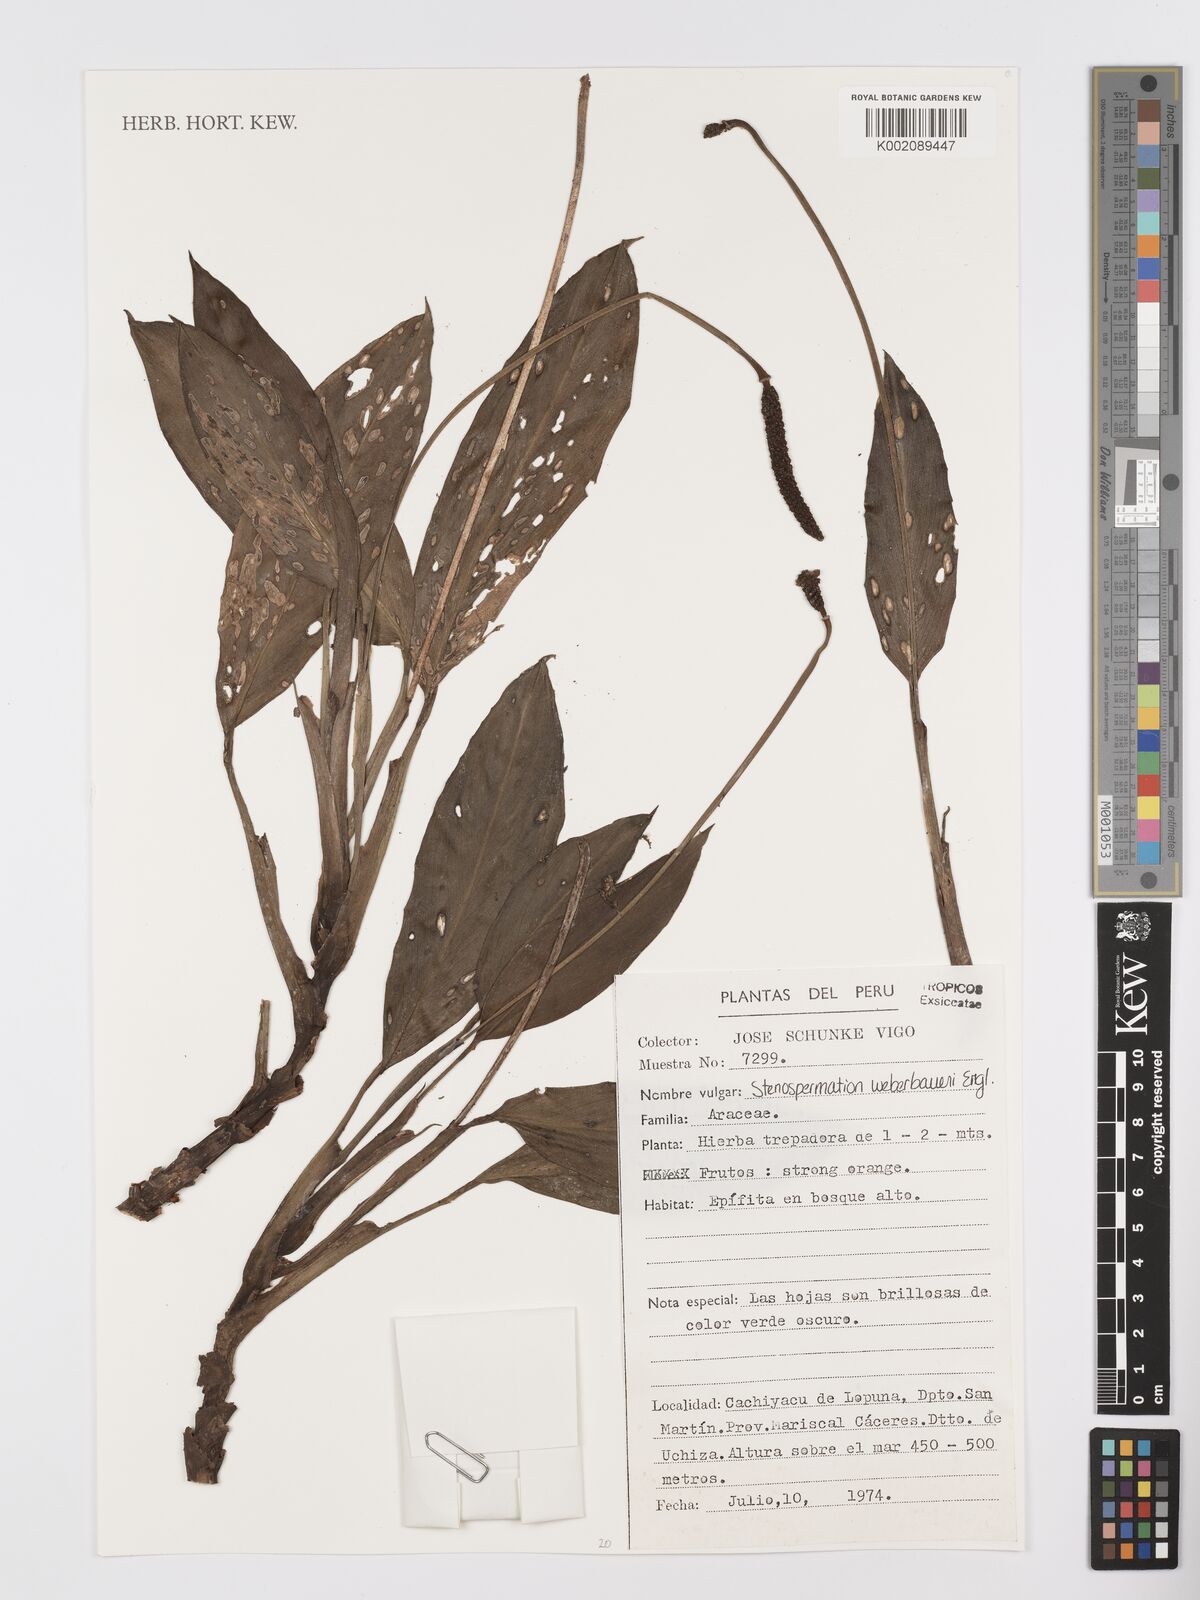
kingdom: Plantae
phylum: Tracheophyta
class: Liliopsida
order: Alismatales
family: Araceae
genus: Stenospermation
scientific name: Stenospermation weberbaueri
